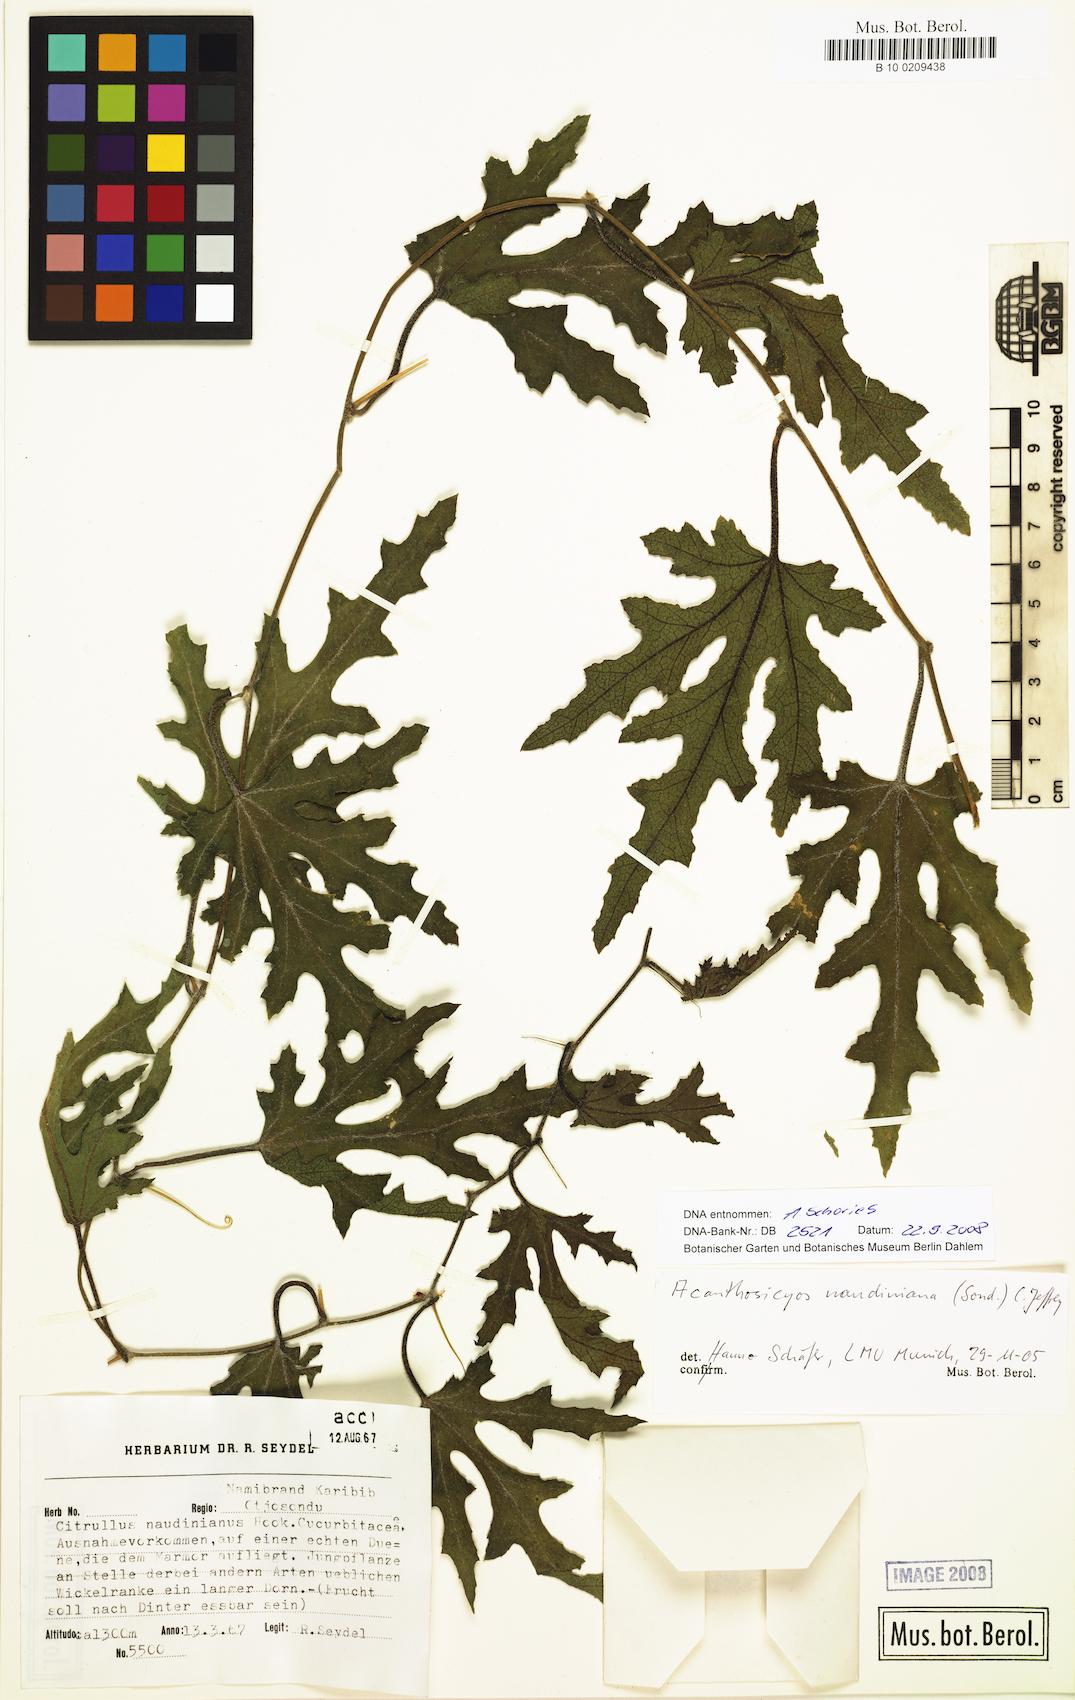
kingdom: Plantae
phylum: Tracheophyta
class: Magnoliopsida
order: Cucurbitales
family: Cucurbitaceae
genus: Citrullus
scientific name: Citrullus naudinianus
